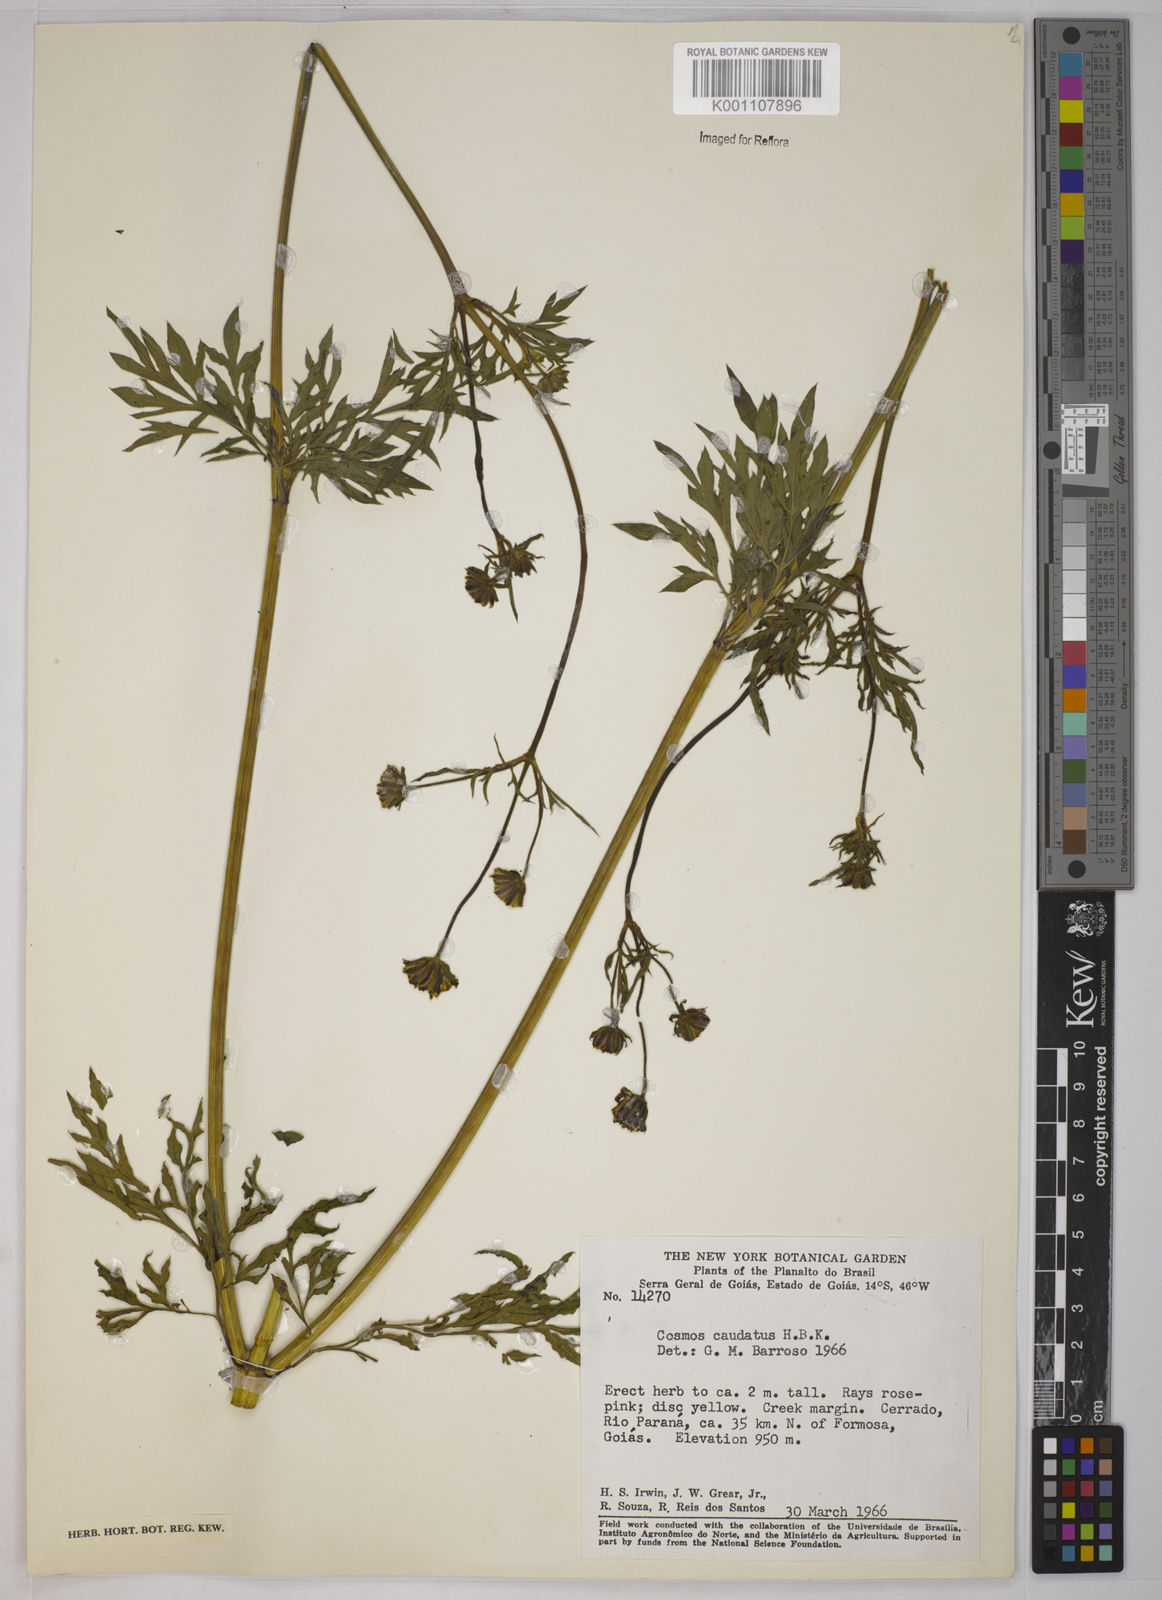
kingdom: Plantae
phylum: Tracheophyta
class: Magnoliopsida
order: Asterales
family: Asteraceae
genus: Cosmos
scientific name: Cosmos caudatus
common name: Wild cosmos
